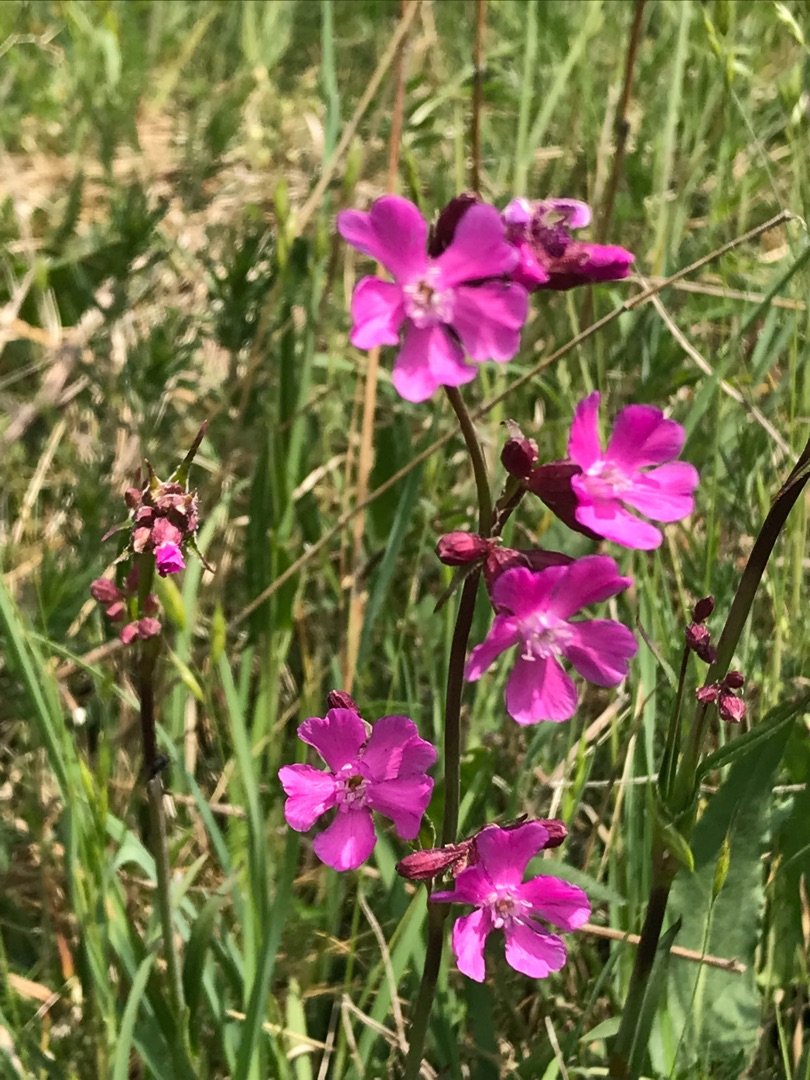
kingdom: Plantae
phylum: Tracheophyta
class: Magnoliopsida
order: Caryophyllales
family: Caryophyllaceae
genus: Viscaria
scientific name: Viscaria vulgaris
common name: Tjærenellike
